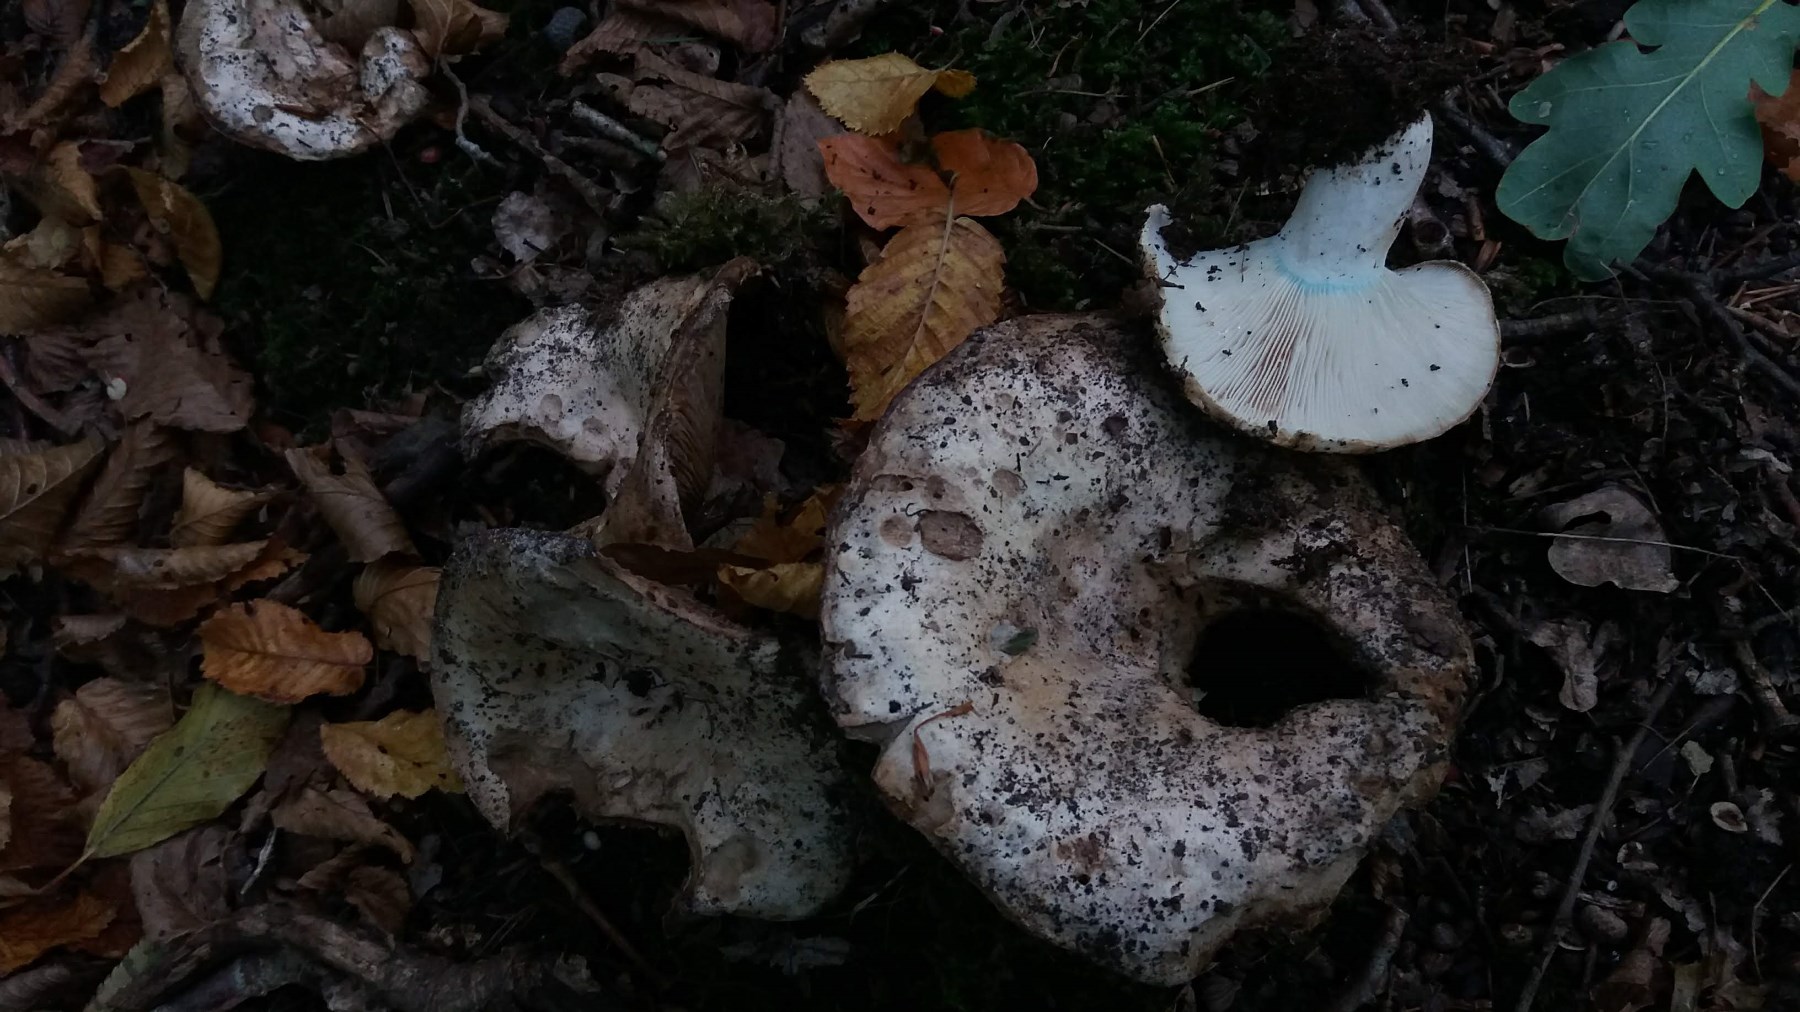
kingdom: Fungi
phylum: Basidiomycota
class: Agaricomycetes
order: Russulales
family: Russulaceae
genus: Russula
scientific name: Russula chloroides
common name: grønhalset tragt-skørhat
